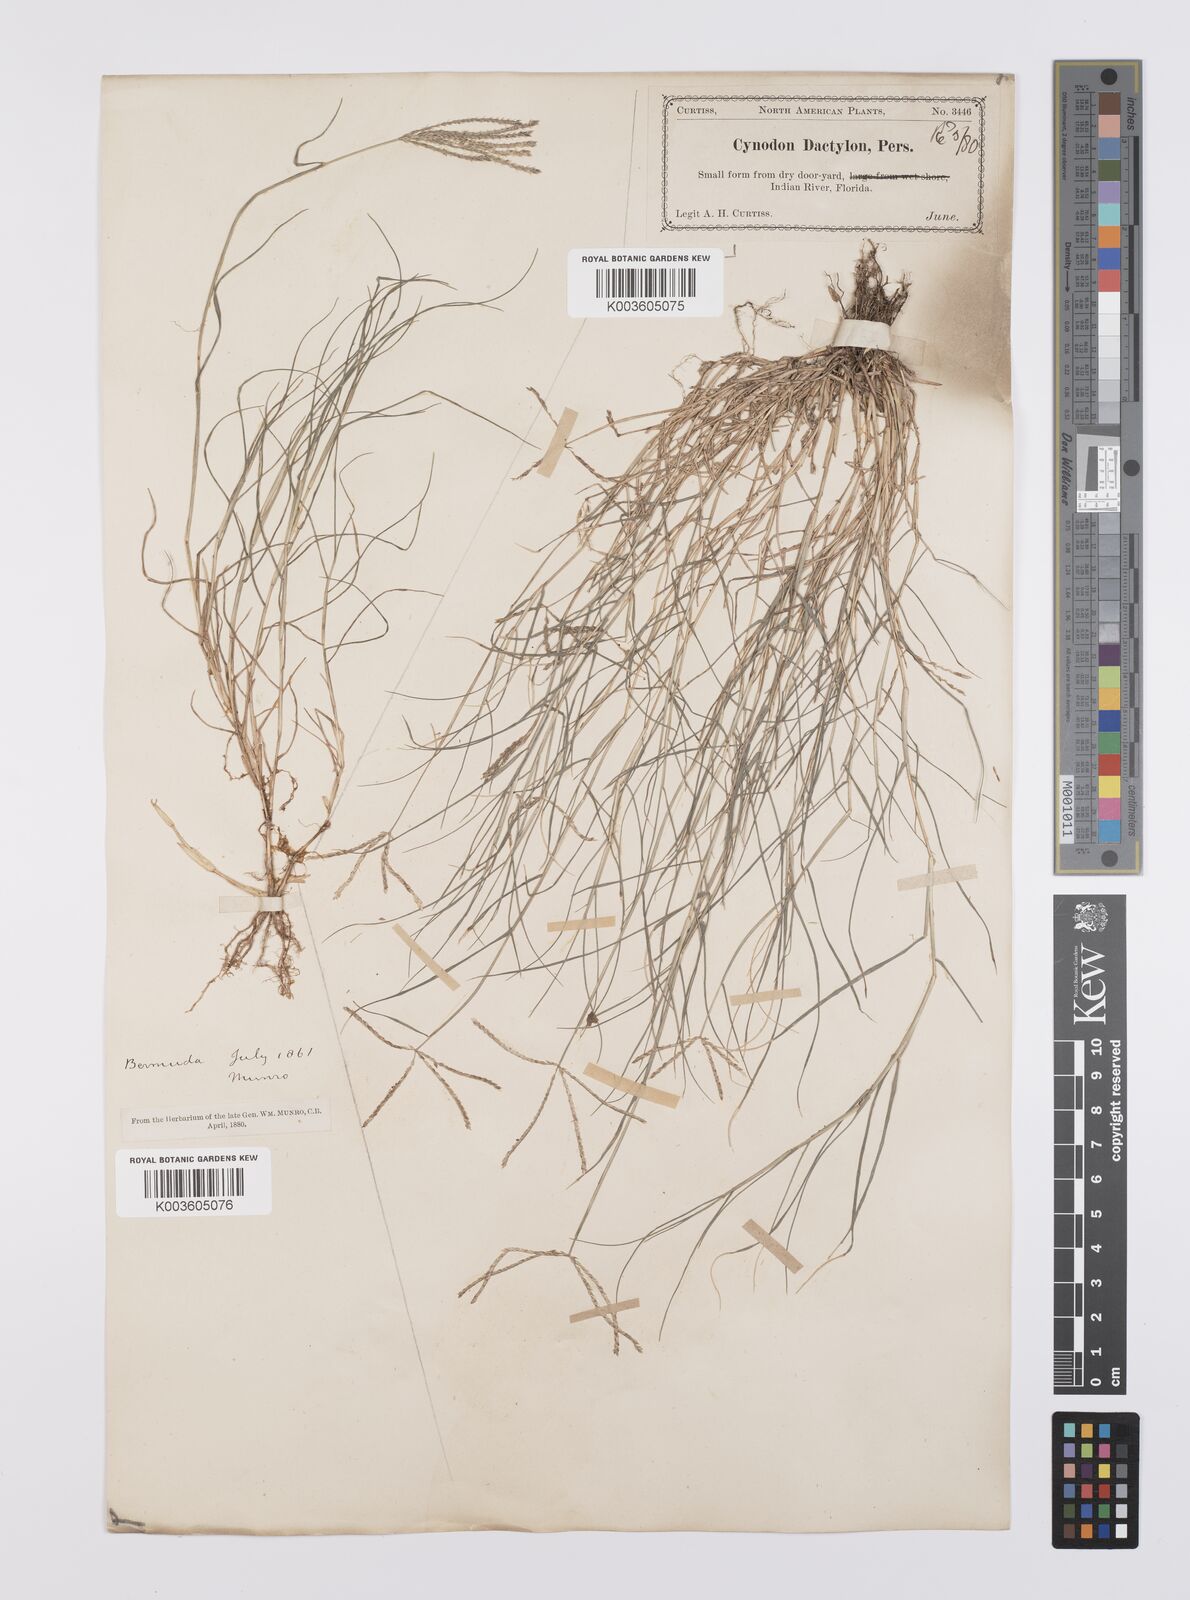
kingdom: Plantae
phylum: Tracheophyta
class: Liliopsida
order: Poales
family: Poaceae
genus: Cynodon
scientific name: Cynodon dactylon
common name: Bermuda grass
